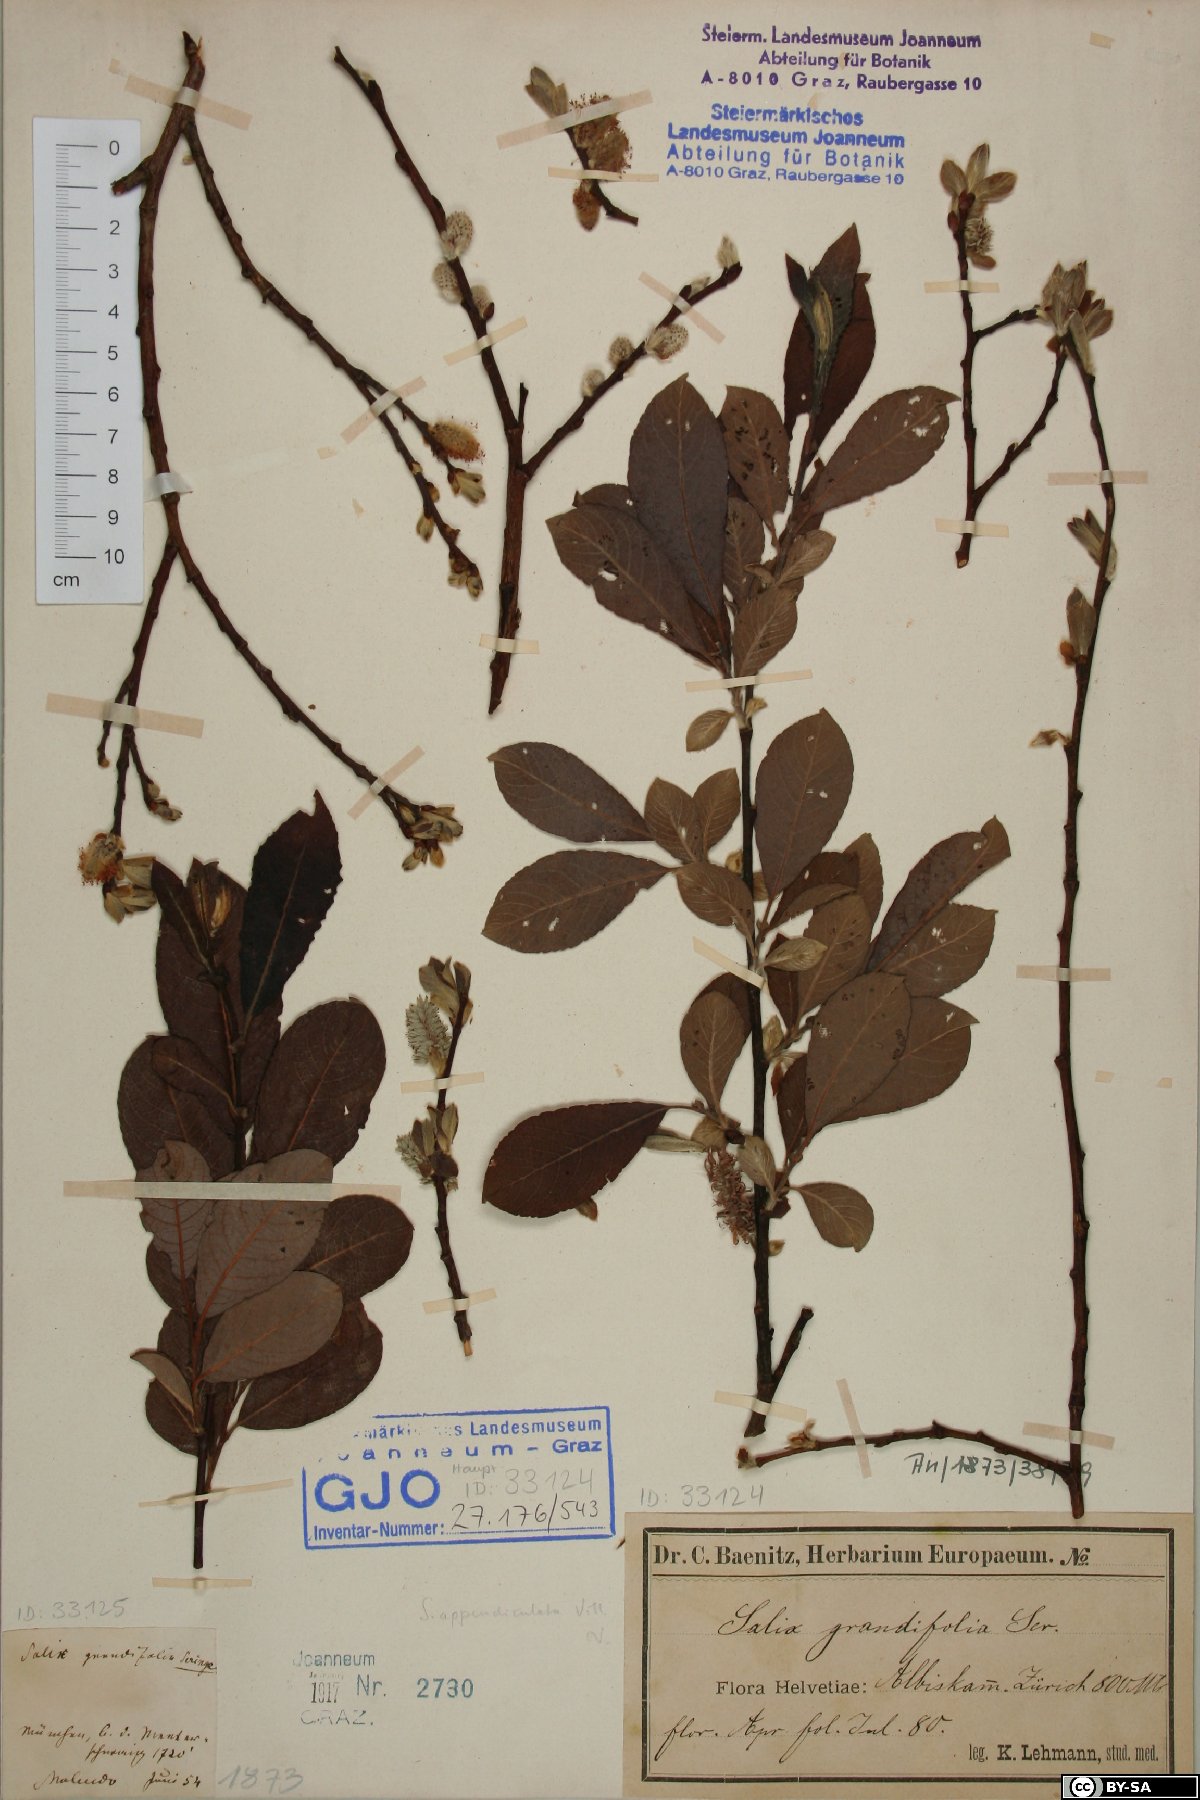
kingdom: Plantae
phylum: Tracheophyta
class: Magnoliopsida
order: Malpighiales
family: Salicaceae
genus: Salix
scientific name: Salix appendiculata
